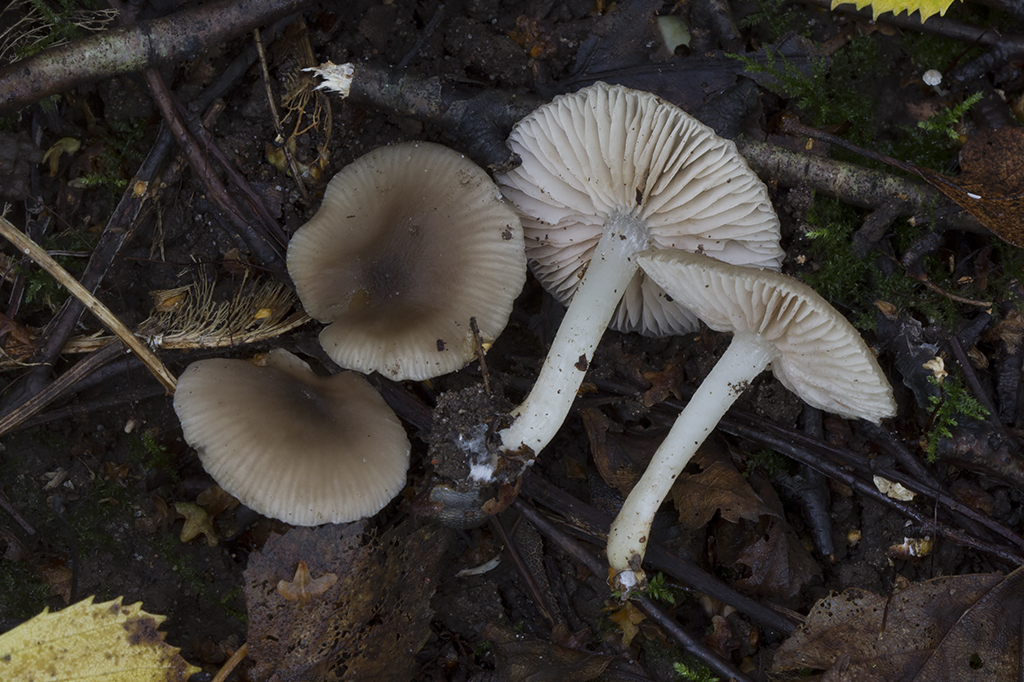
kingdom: Fungi
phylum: Basidiomycota
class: Agaricomycetes
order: Agaricales
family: Entolomataceae
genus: Entoloma
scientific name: Entoloma subradiatum
